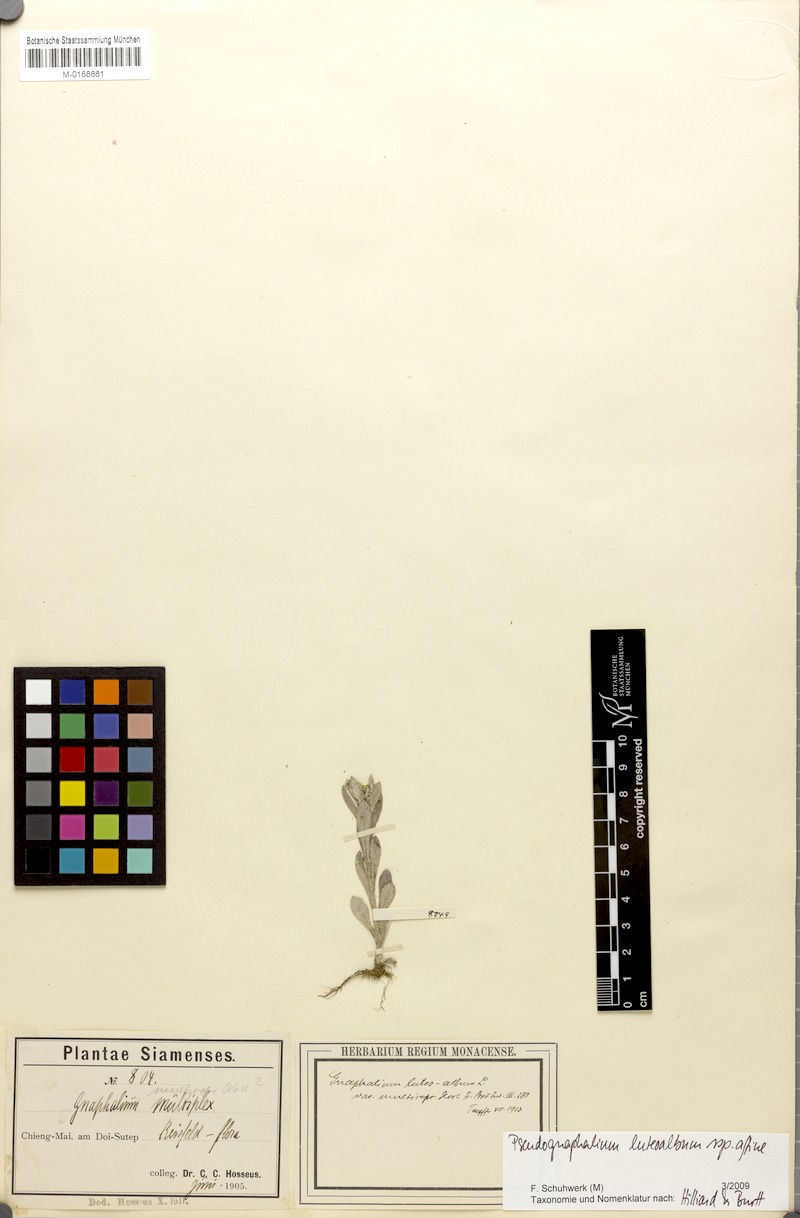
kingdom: Plantae
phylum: Tracheophyta
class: Magnoliopsida
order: Asterales
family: Asteraceae
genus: Helichrysum
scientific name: Helichrysum luteoalbum
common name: Daisy
